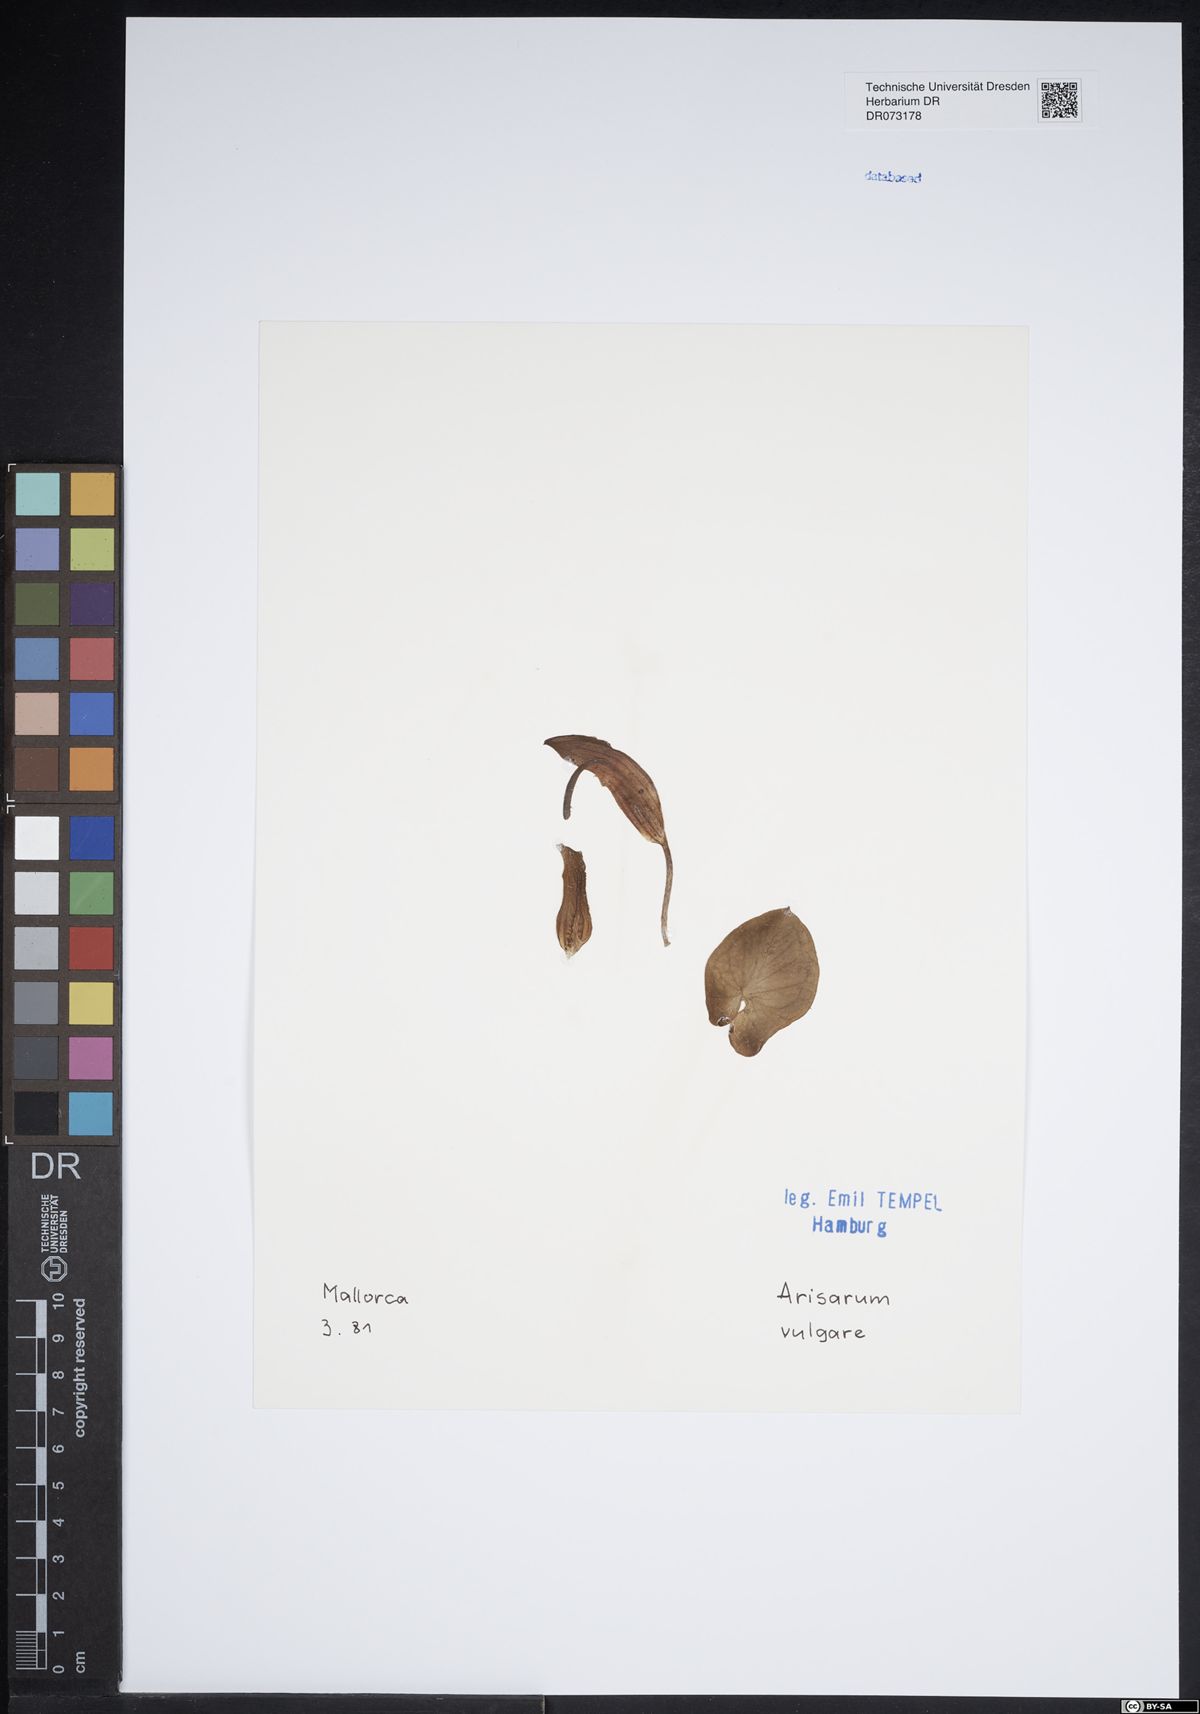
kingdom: Plantae
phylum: Tracheophyta
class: Liliopsida
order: Alismatales
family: Araceae
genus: Arisarum
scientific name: Arisarum vulgare
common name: Common arisarum
